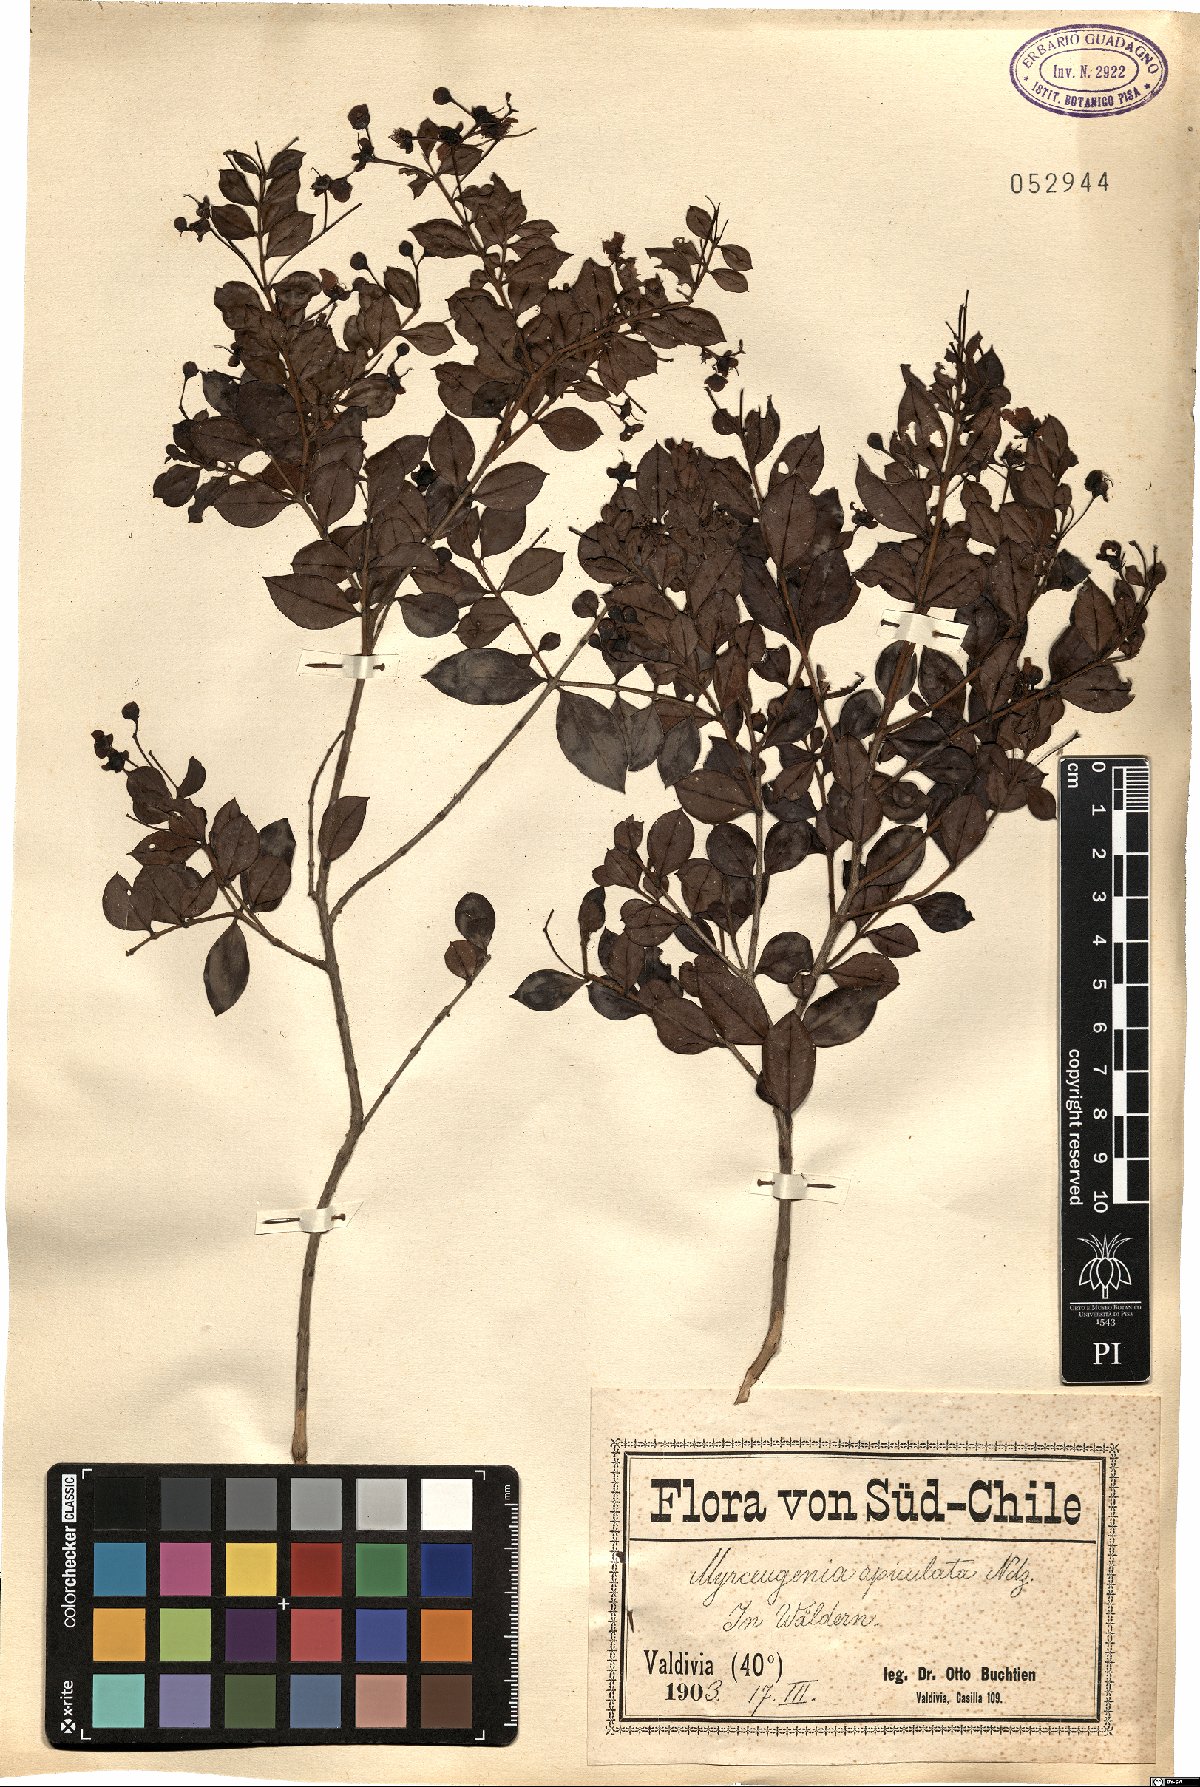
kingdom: Plantae
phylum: Tracheophyta
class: Magnoliopsida
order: Myrtales
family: Myrtaceae
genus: Luma
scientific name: Luma apiculata
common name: Chilean myrtle
